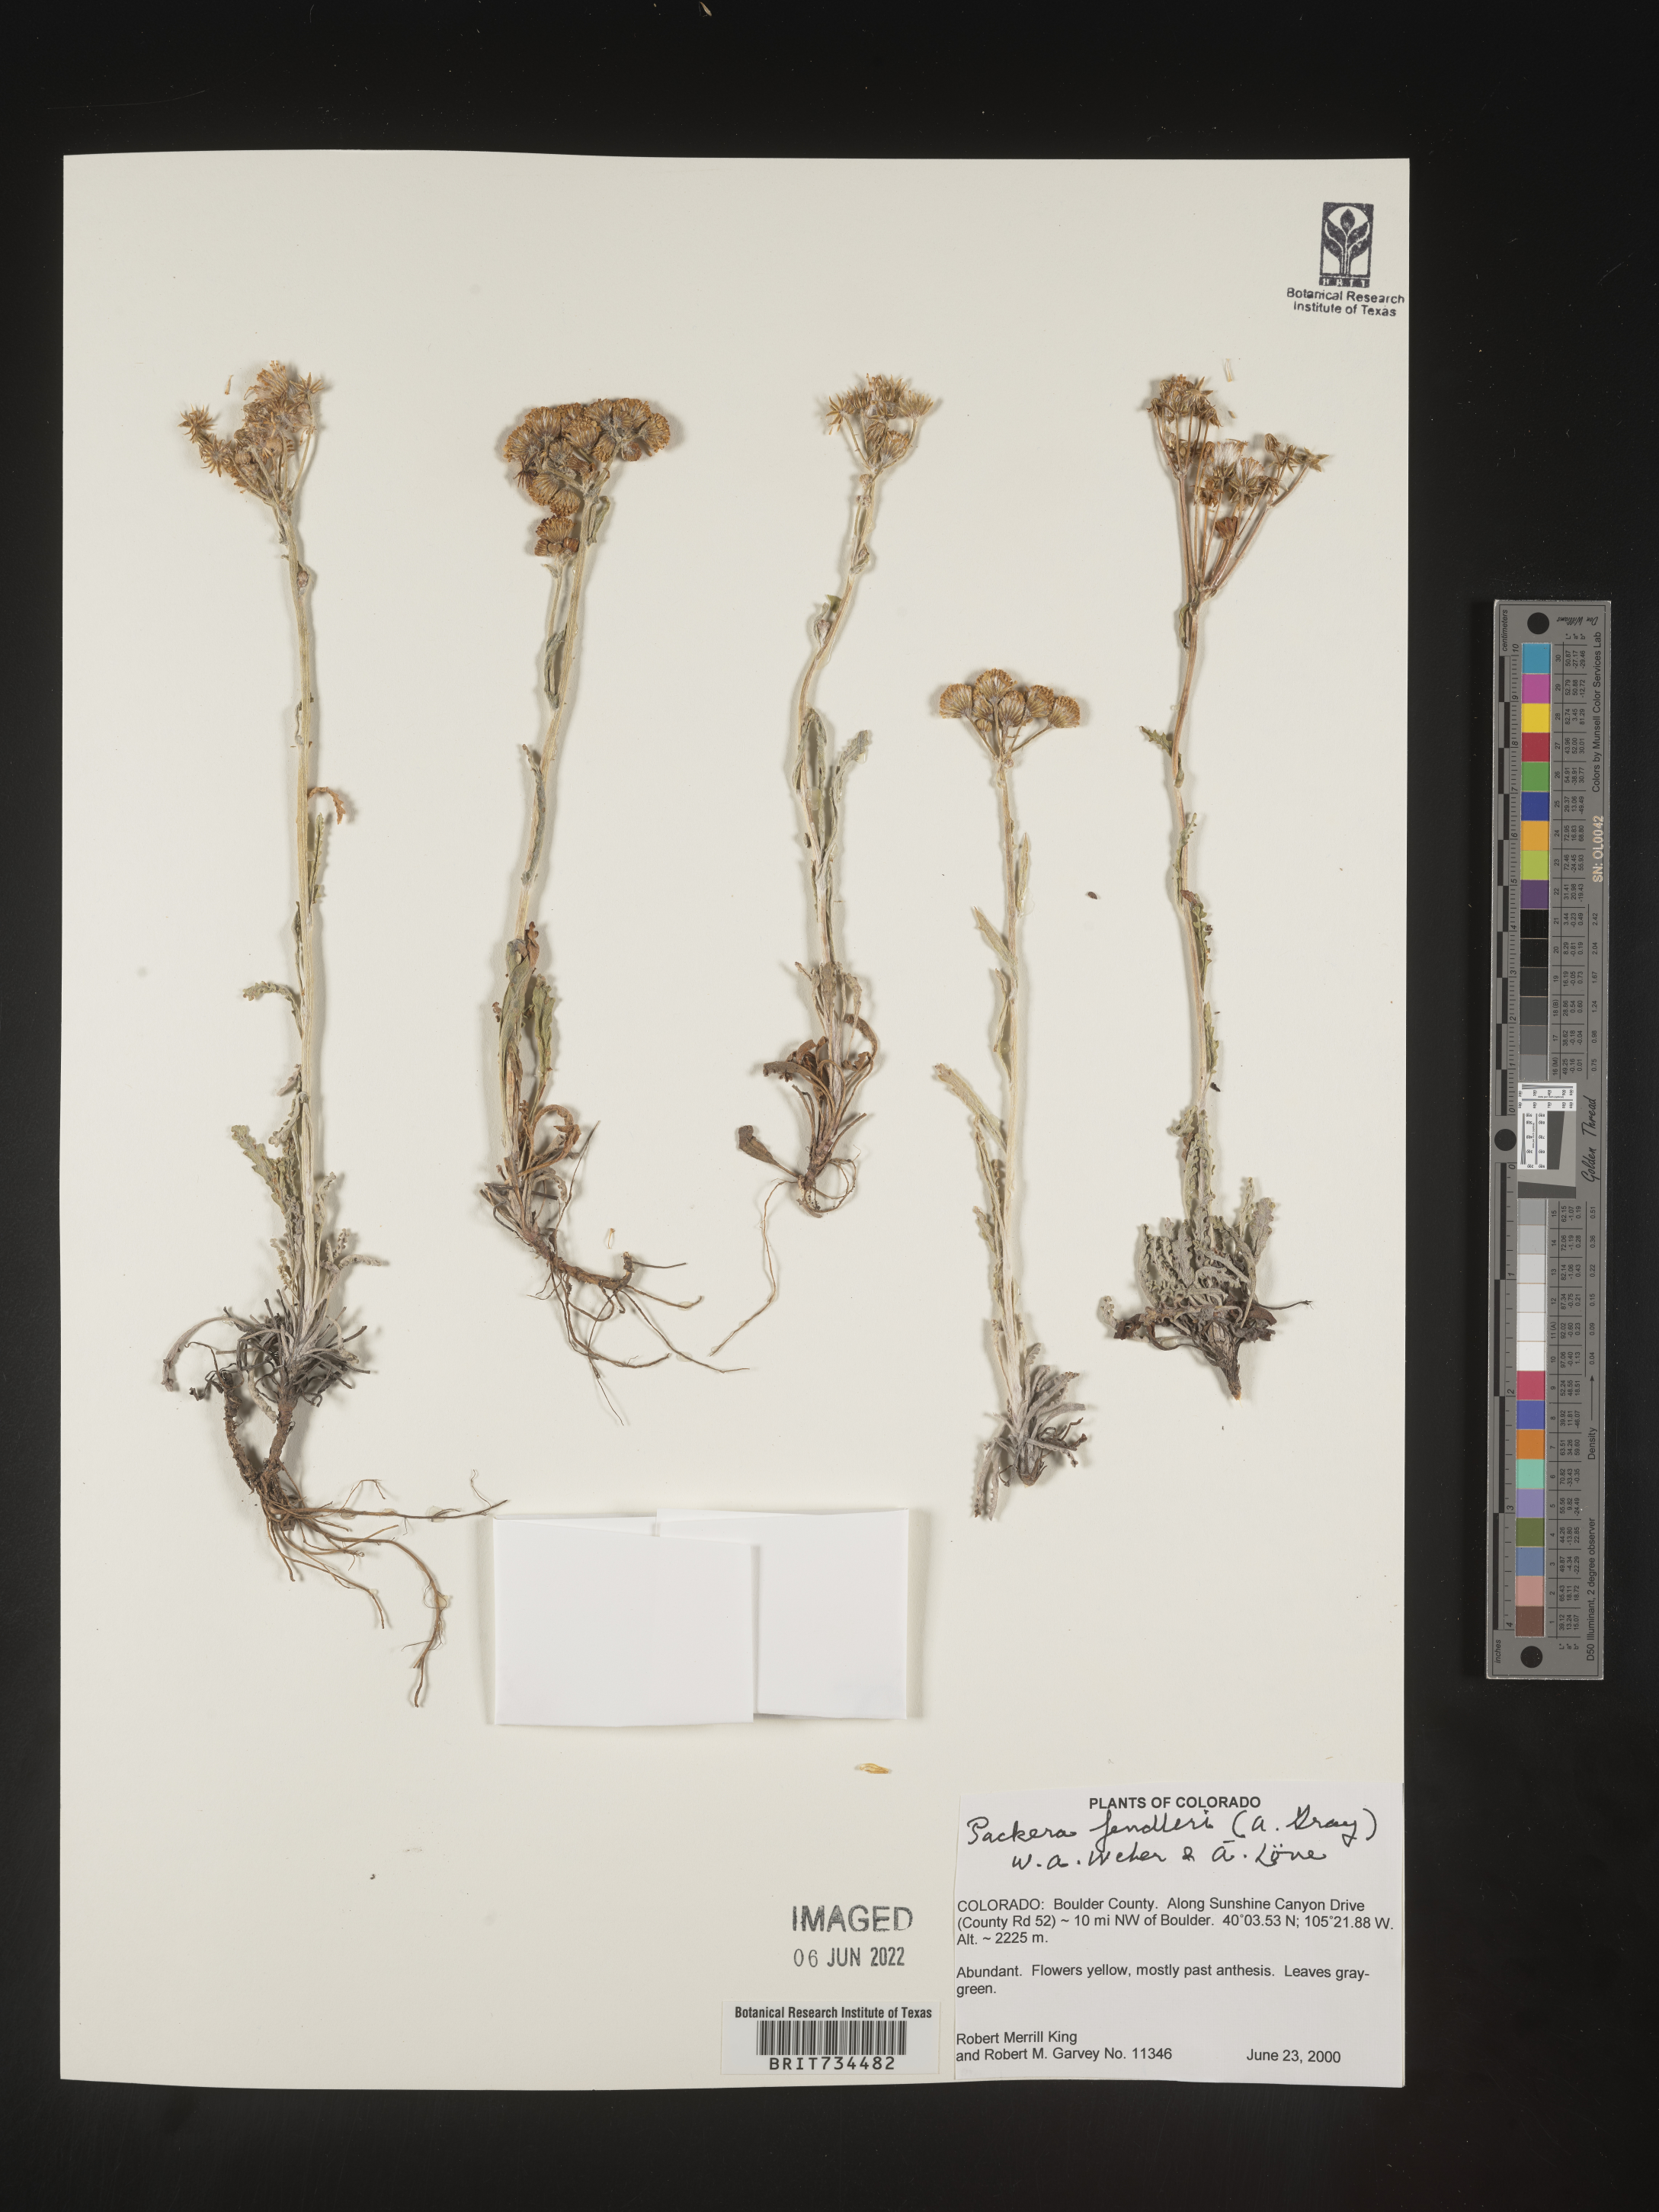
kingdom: Plantae
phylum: Tracheophyta
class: Magnoliopsida
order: Asterales
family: Asteraceae
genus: Packera
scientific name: Packera fendleri
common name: Notch-leaf butterweed
